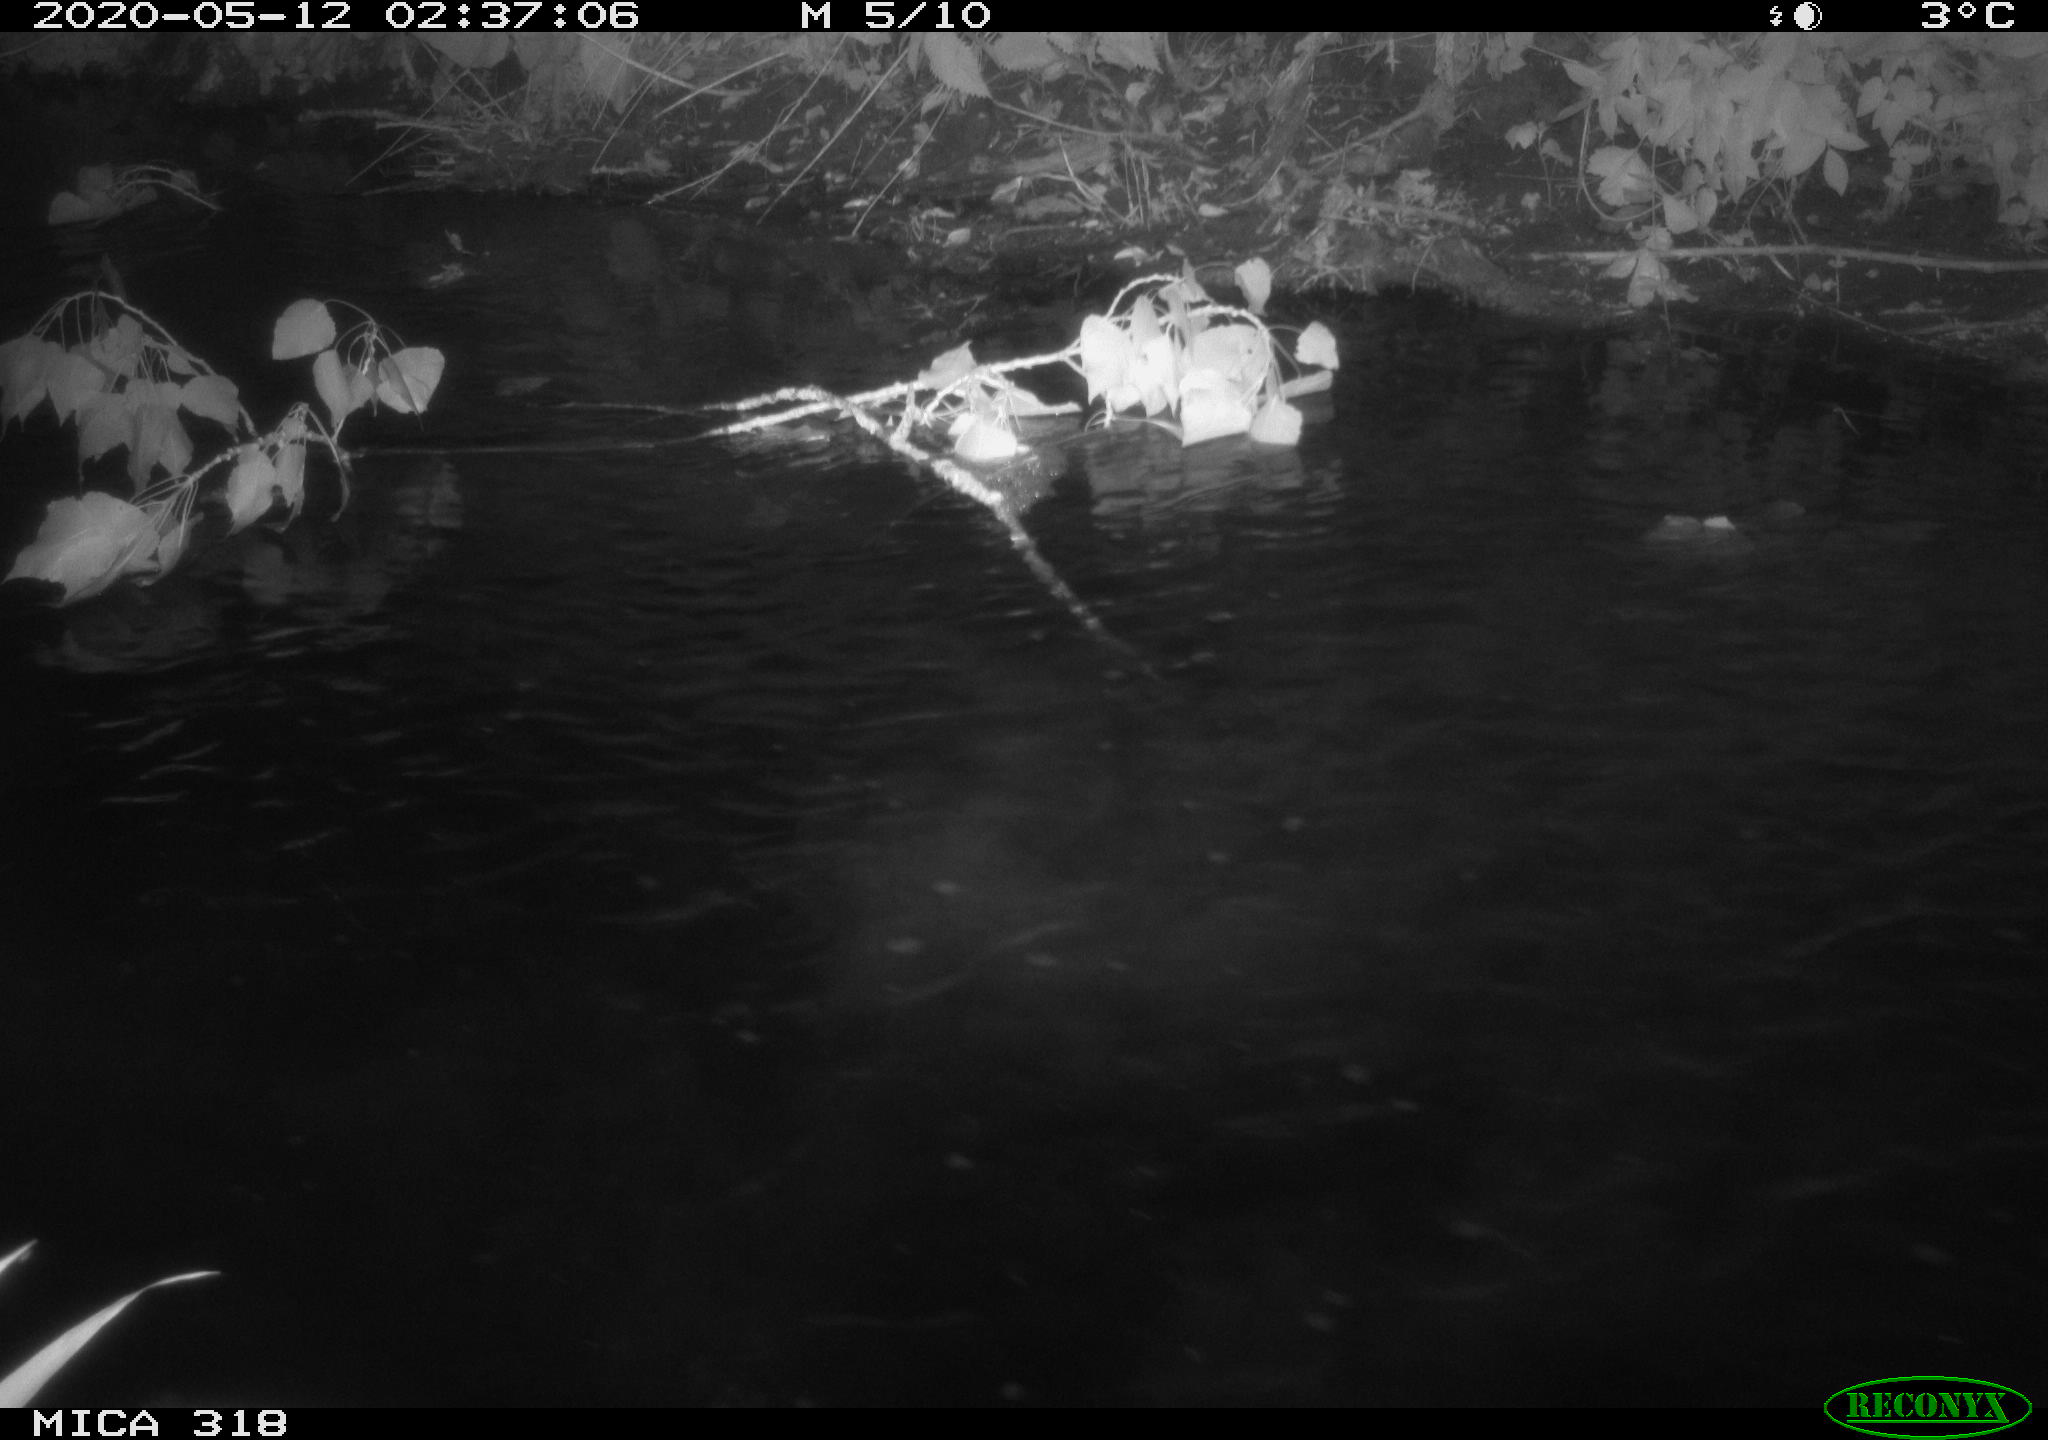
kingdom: Animalia
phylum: Chordata
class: Aves
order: Anseriformes
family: Anatidae
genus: Anas
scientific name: Anas platyrhynchos
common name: Mallard
